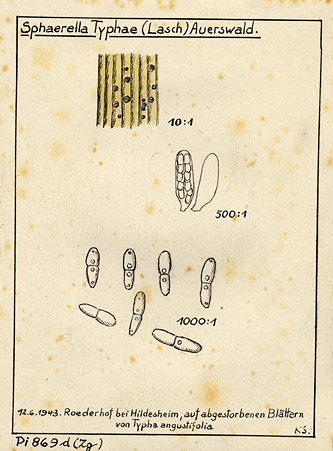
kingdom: Plantae
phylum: Tracheophyta
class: Liliopsida
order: Poales
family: Typhaceae
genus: Typha
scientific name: Typha angustifolia
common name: Lesser bulrush
